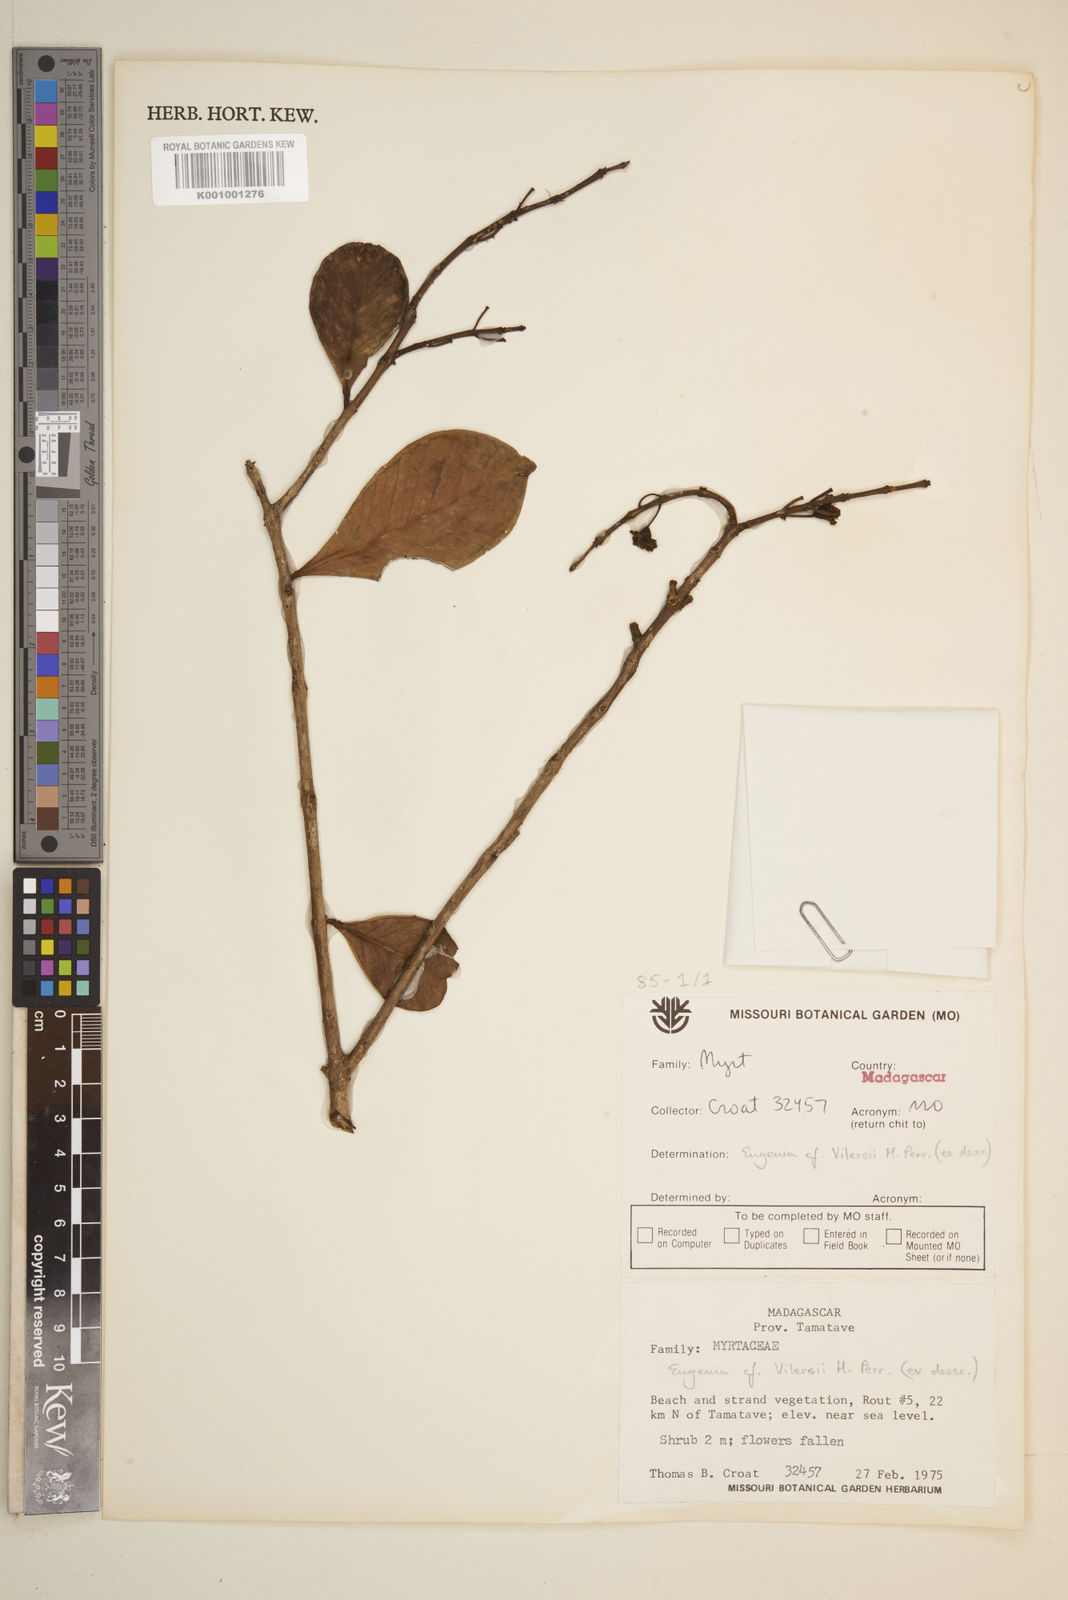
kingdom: Plantae
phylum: Tracheophyta
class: Magnoliopsida
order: Myrtales
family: Myrtaceae
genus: Eugenia
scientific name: Eugenia uniflora
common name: Surinam cherry
